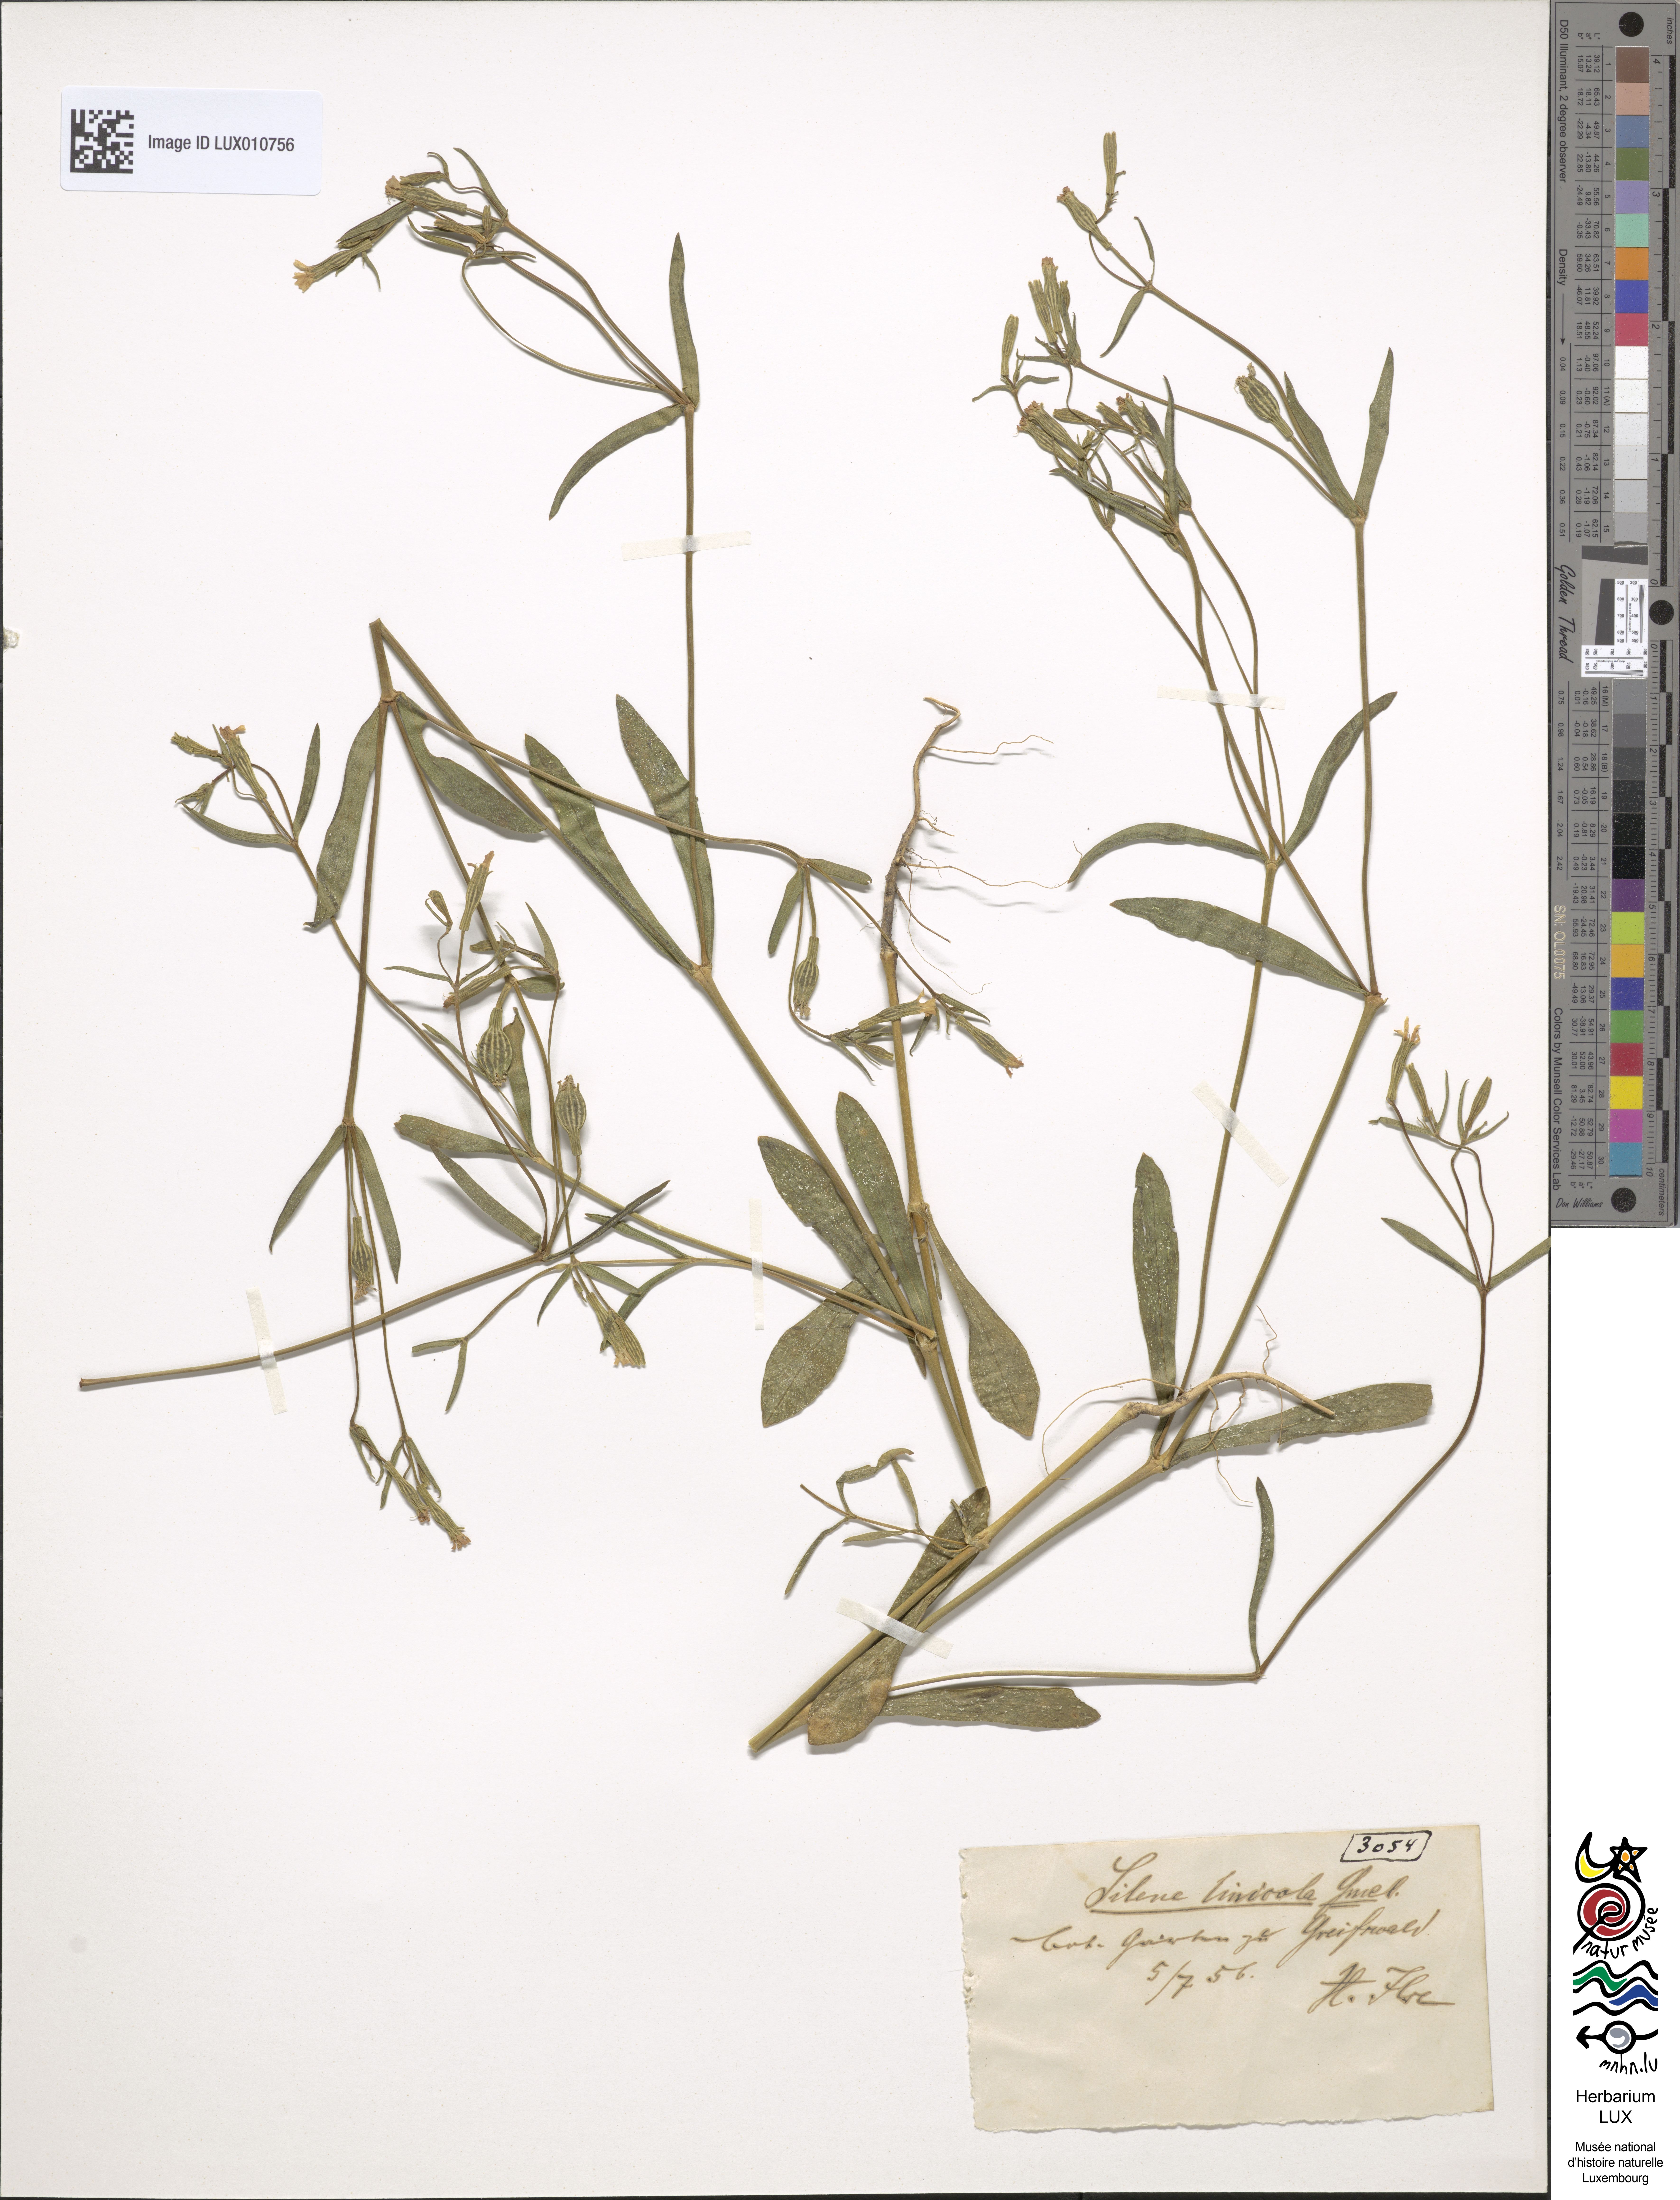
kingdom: Plantae
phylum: Tracheophyta
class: Magnoliopsida
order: Caryophyllales
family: Caryophyllaceae
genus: Silene
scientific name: Silene linicola
